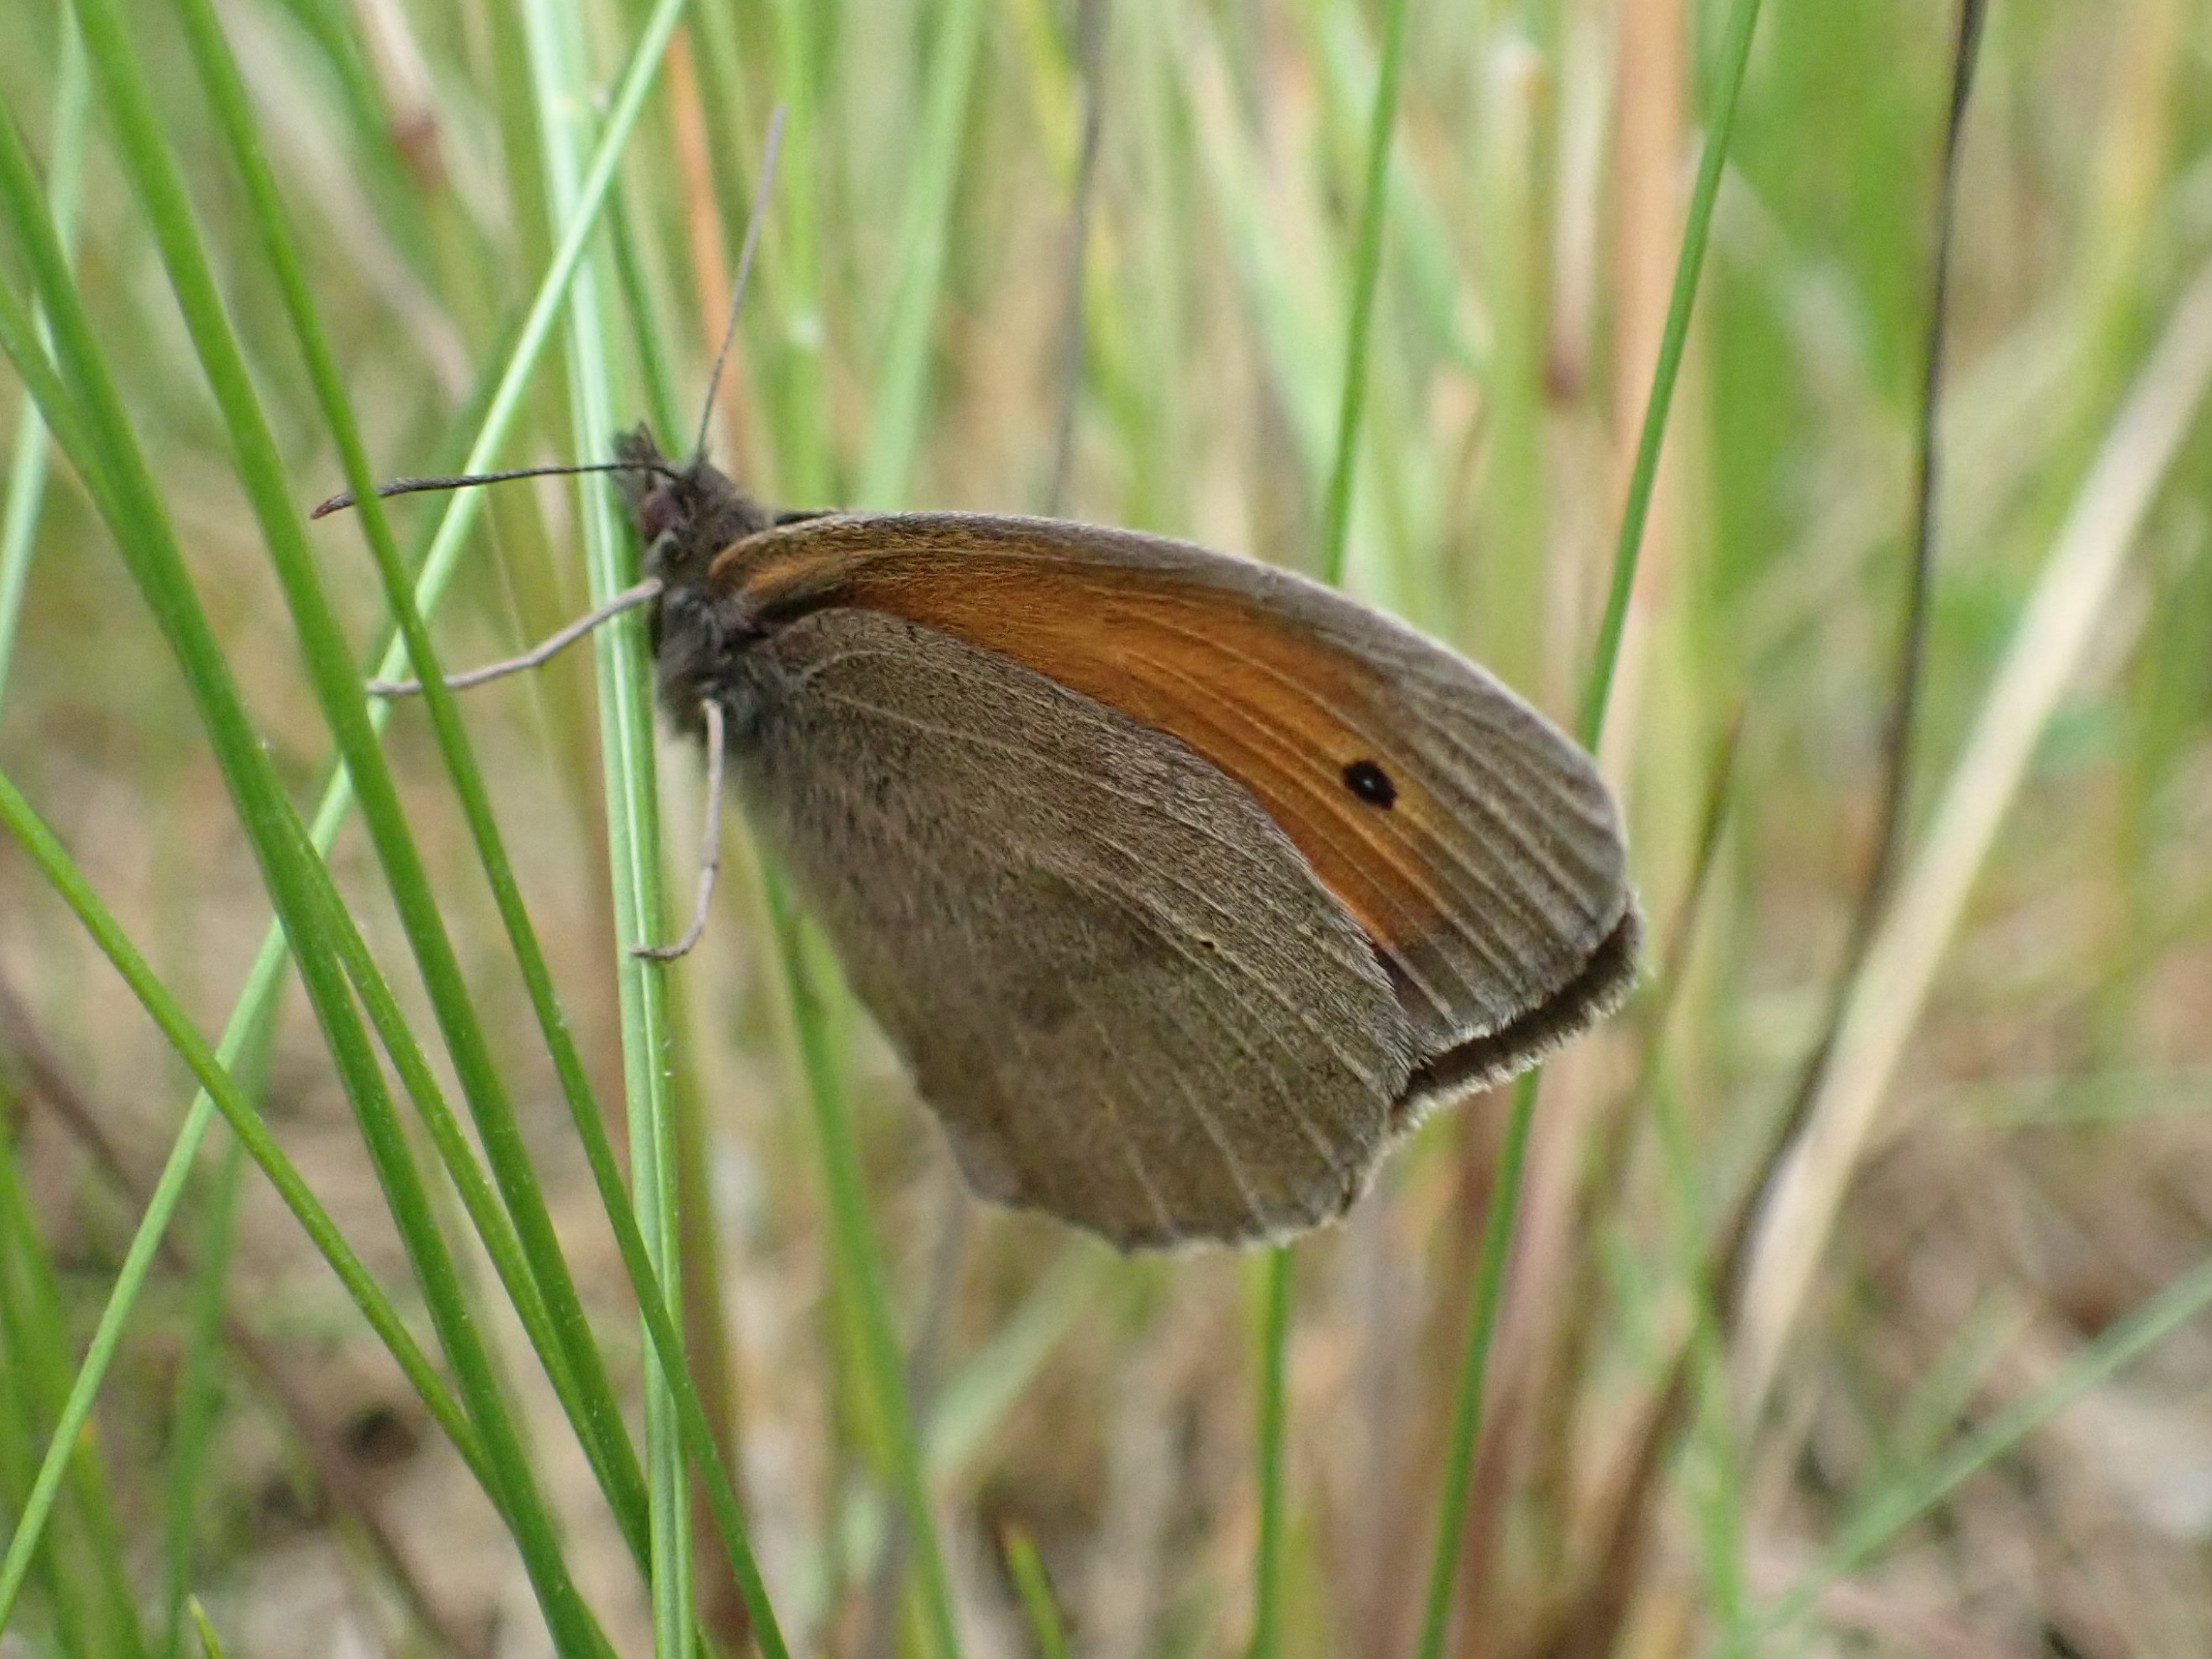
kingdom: Animalia
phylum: Arthropoda
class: Insecta
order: Lepidoptera
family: Nymphalidae
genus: Maniola
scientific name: Maniola jurtina
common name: Græsrandøje
